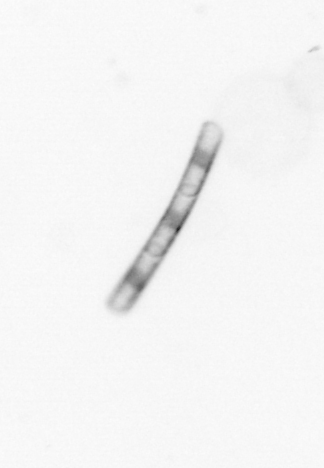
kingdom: Chromista
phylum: Ochrophyta
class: Bacillariophyceae
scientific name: Bacillariophyceae
